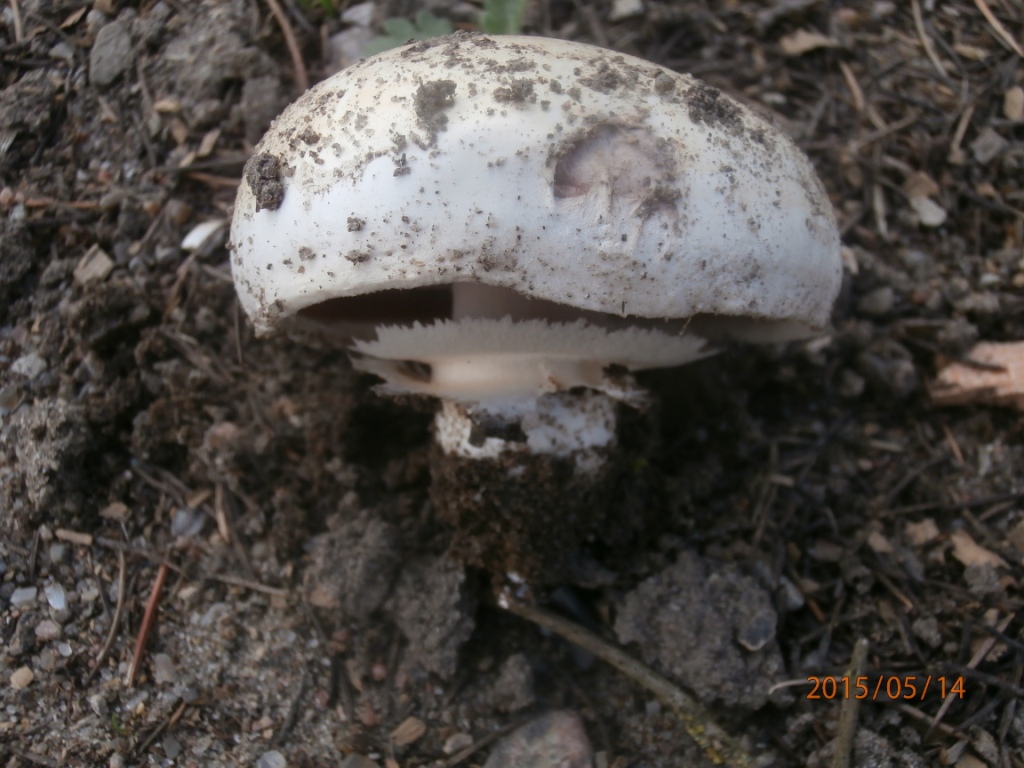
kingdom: Fungi
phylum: Basidiomycota
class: Agaricomycetes
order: Agaricales
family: Agaricaceae
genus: Agaricus
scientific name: Agaricus bitorquis
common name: vej-champignon
